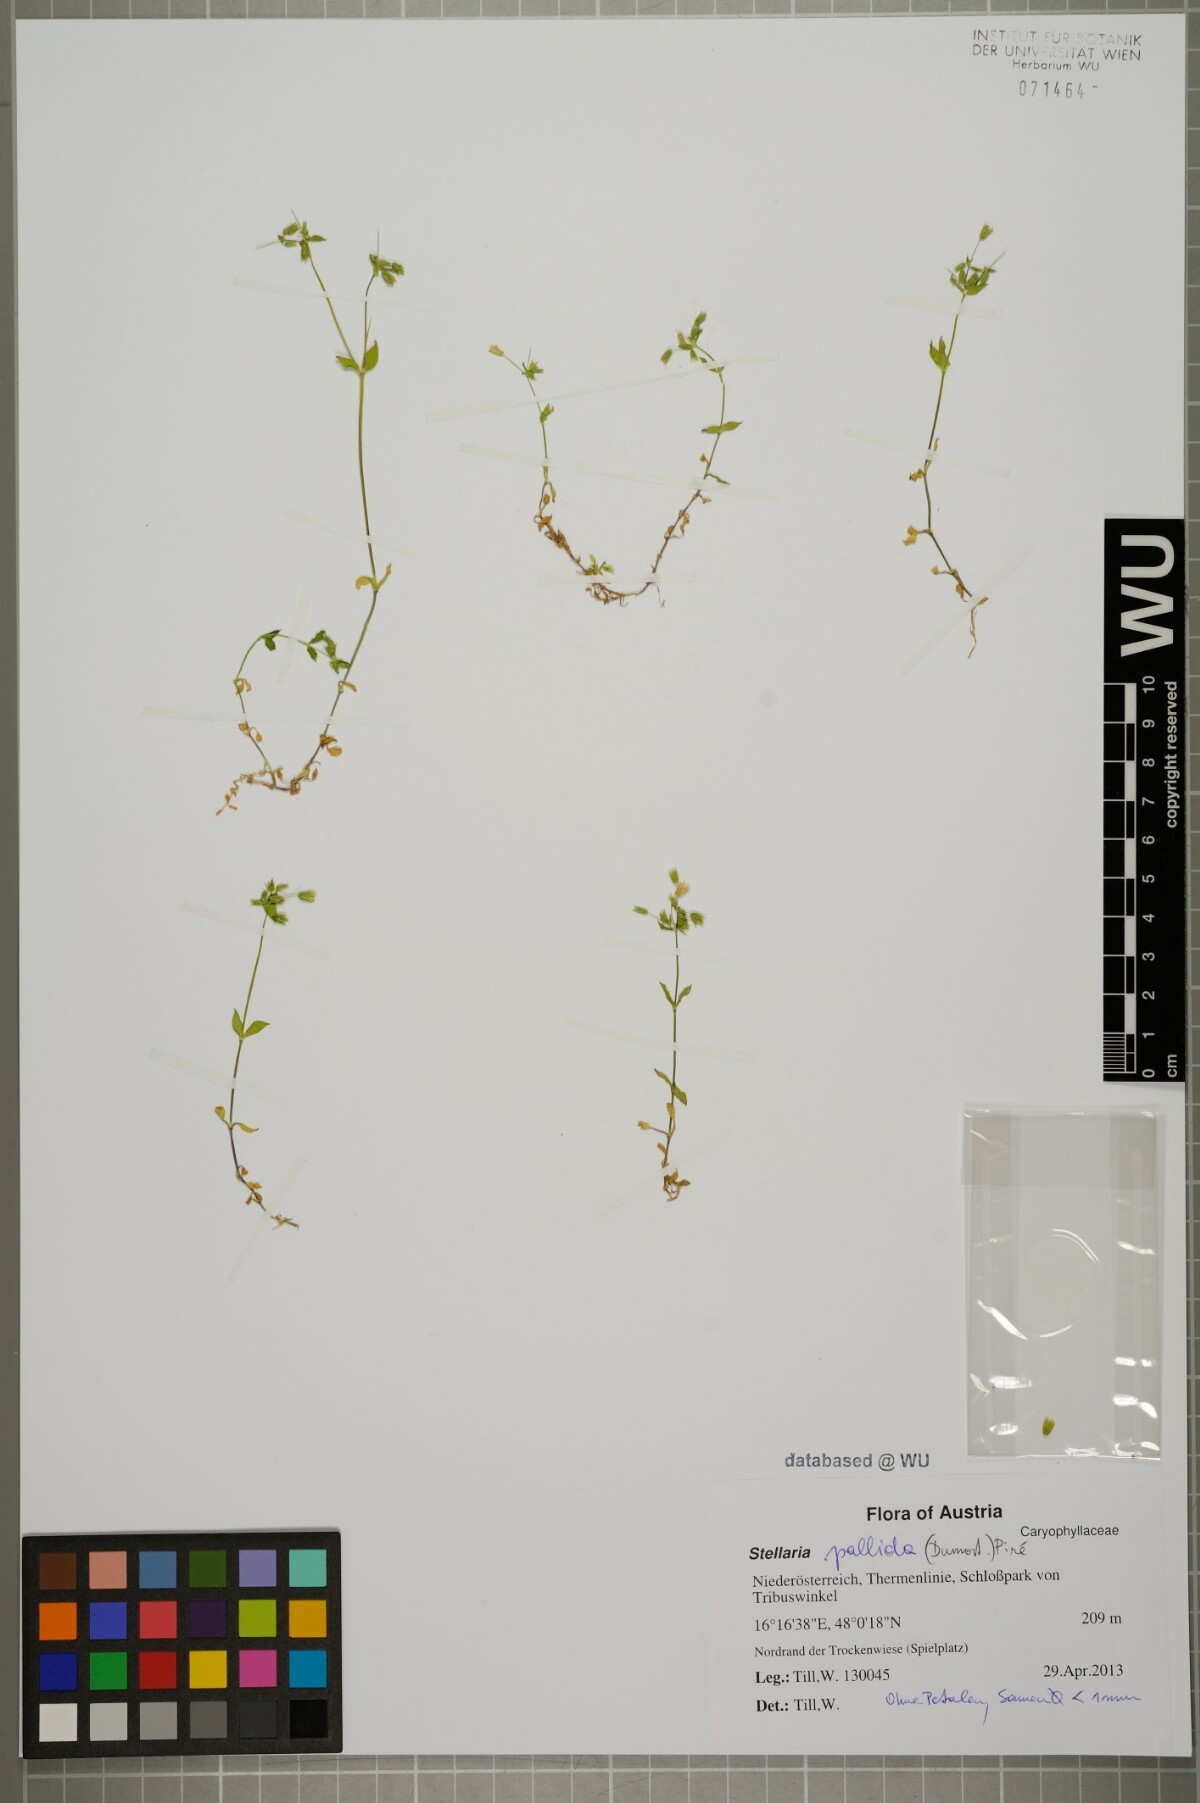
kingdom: Plantae
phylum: Tracheophyta
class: Magnoliopsida
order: Caryophyllales
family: Caryophyllaceae
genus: Stellaria
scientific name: Stellaria apetala
